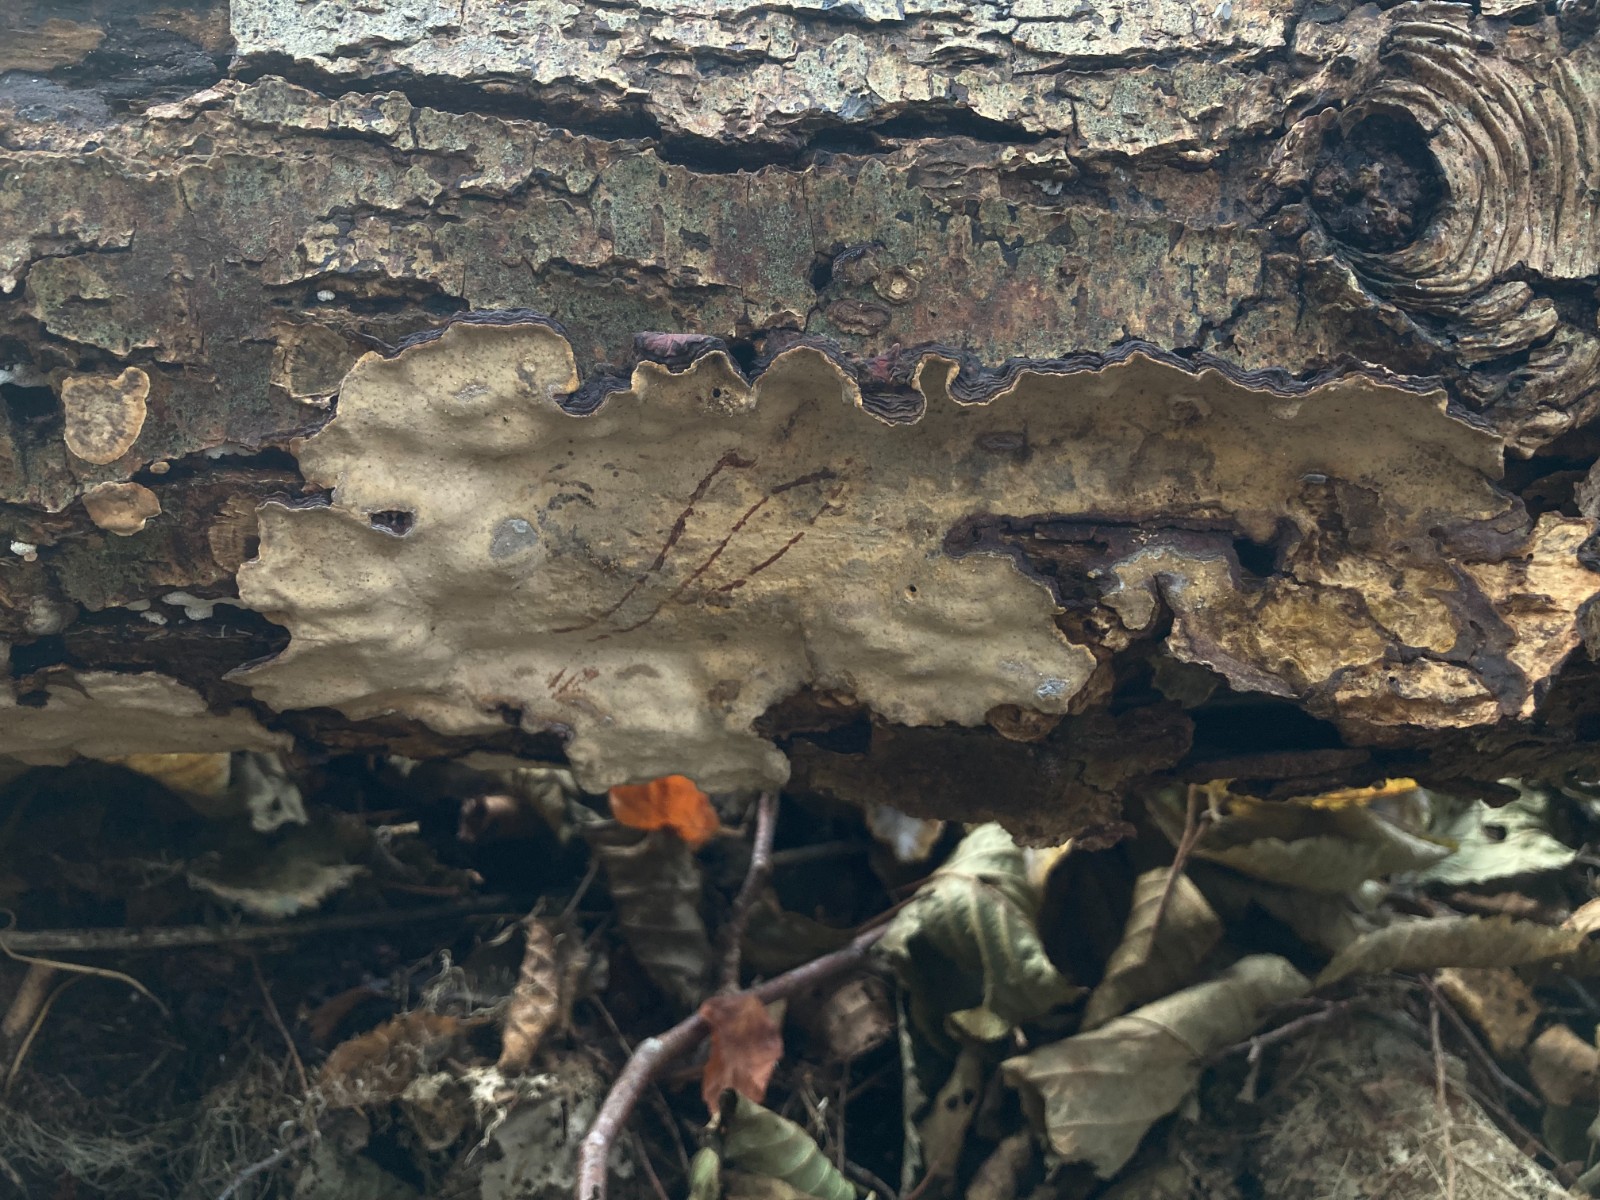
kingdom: Fungi
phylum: Basidiomycota
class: Agaricomycetes
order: Russulales
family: Stereaceae
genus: Stereum
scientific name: Stereum rugosum
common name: rynket lædersvamp
